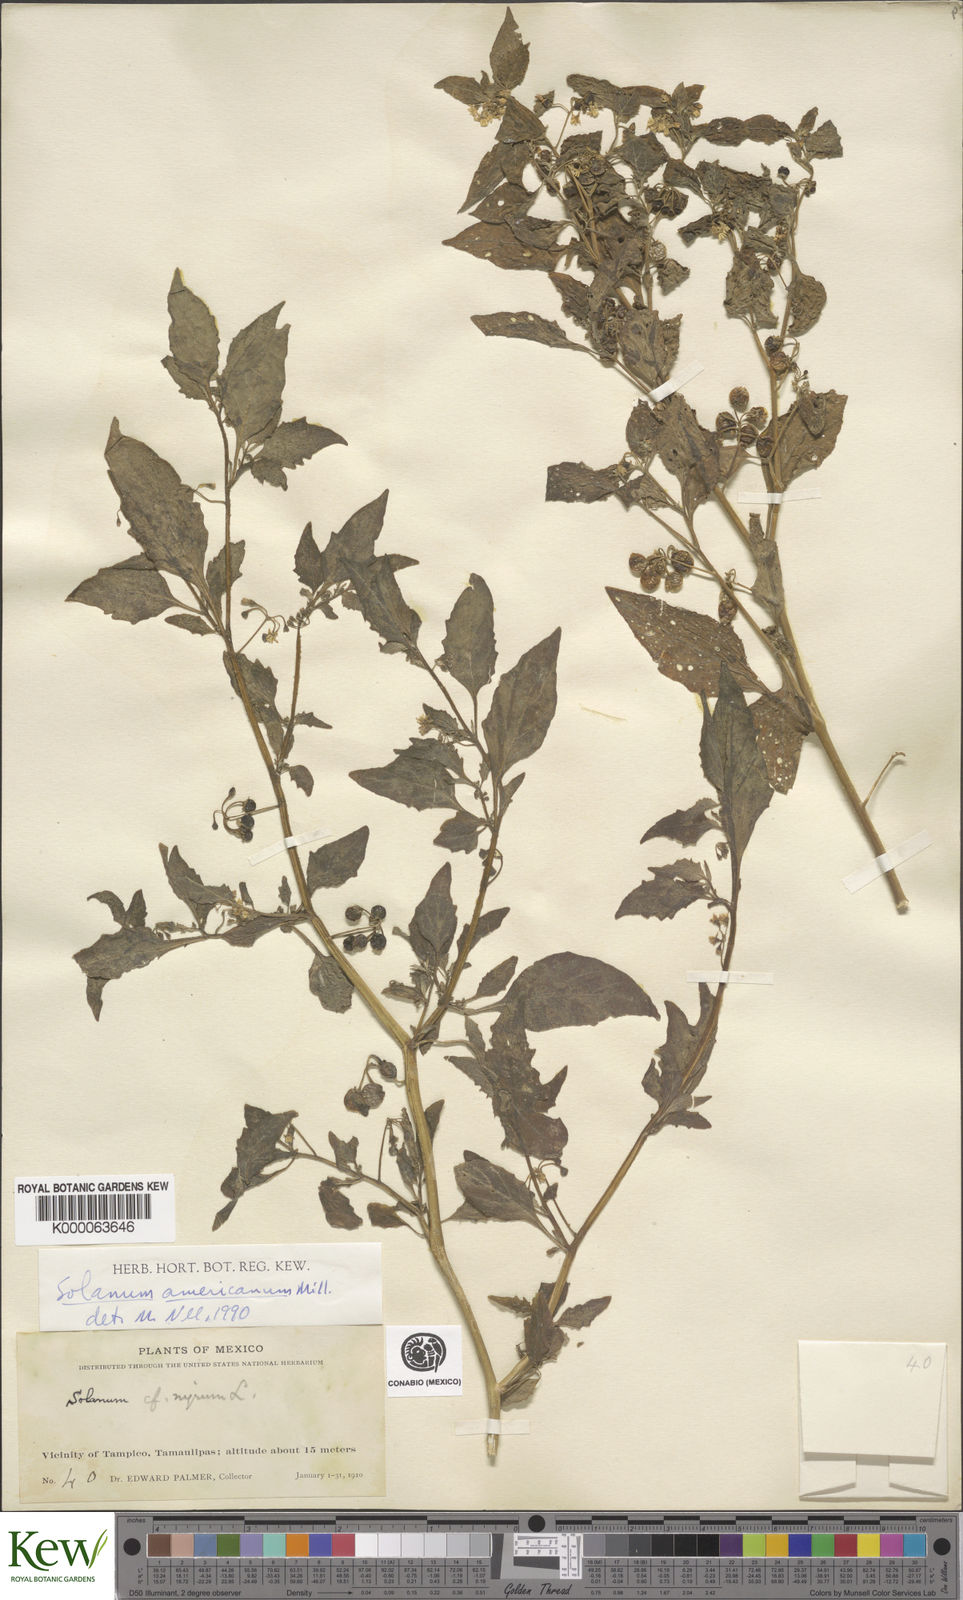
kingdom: Plantae
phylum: Tracheophyta
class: Magnoliopsida
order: Solanales
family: Solanaceae
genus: Solanum
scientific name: Solanum americanum
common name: American black nightshade
